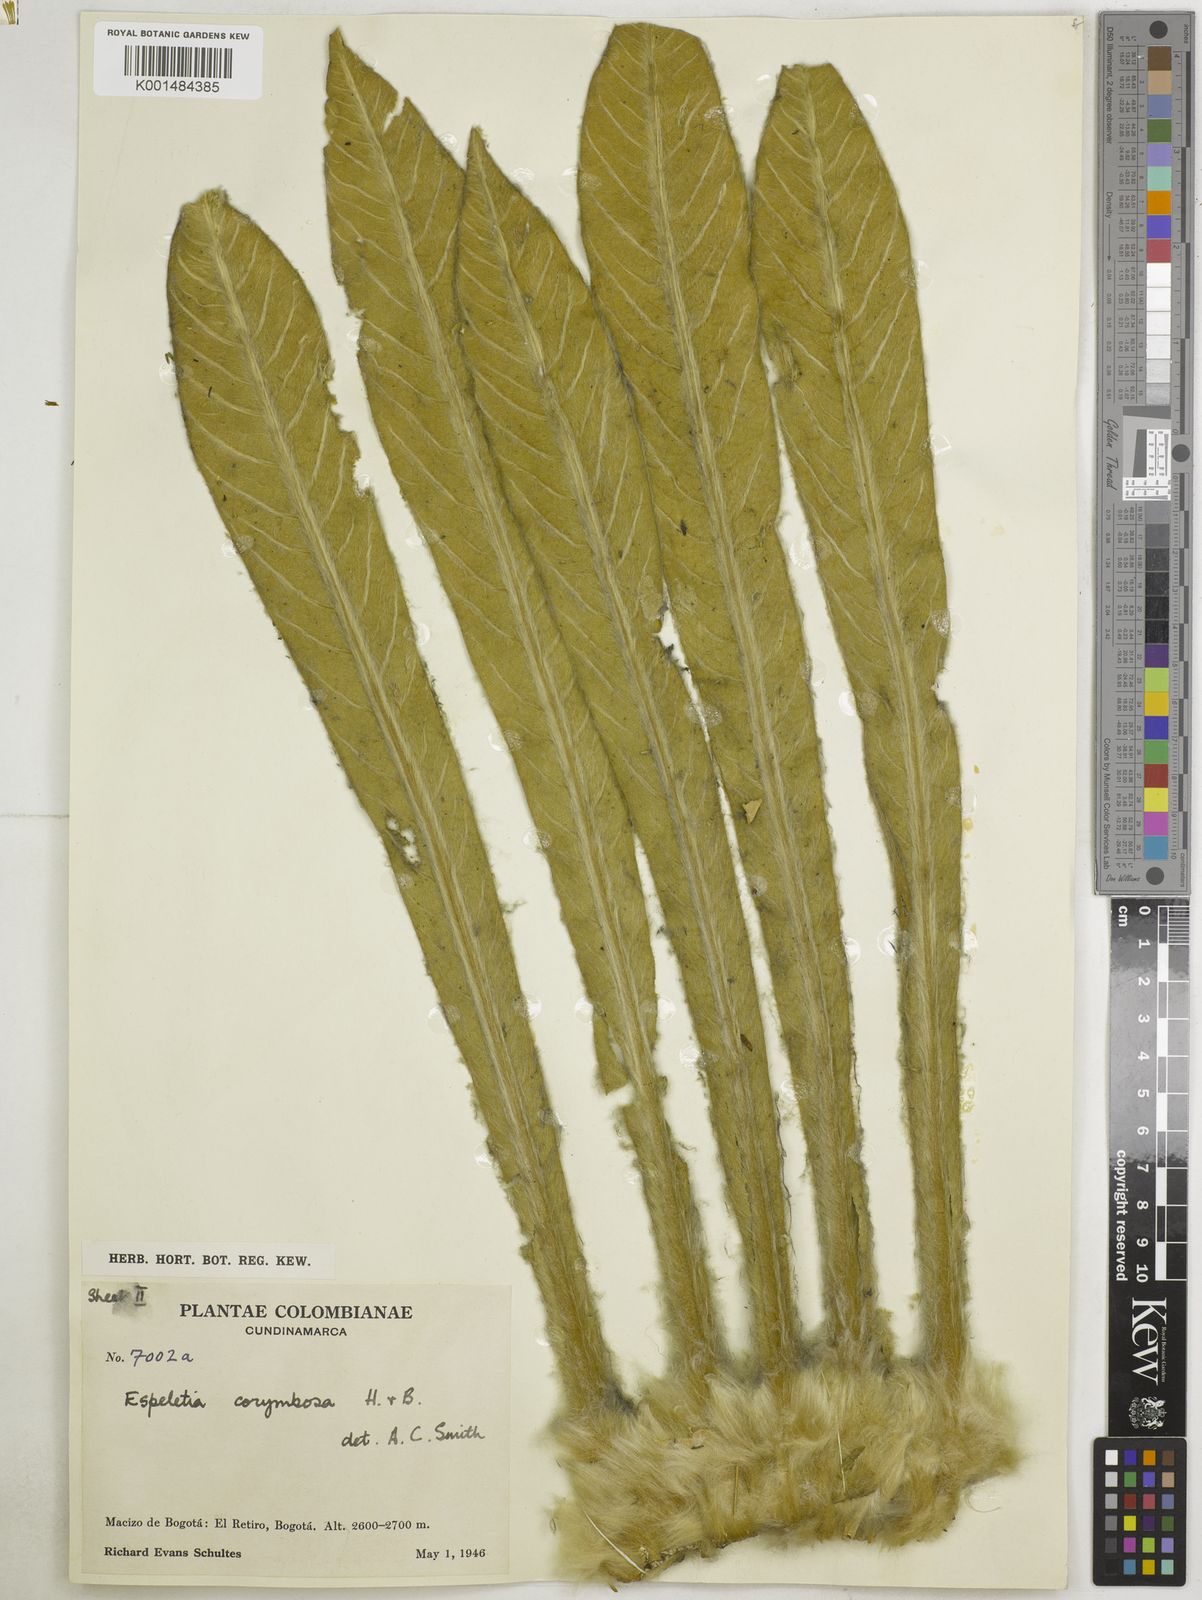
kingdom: Plantae
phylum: Tracheophyta
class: Magnoliopsida
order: Asterales
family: Asteraceae
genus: Espeletia
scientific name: Espeletia corymbosa
